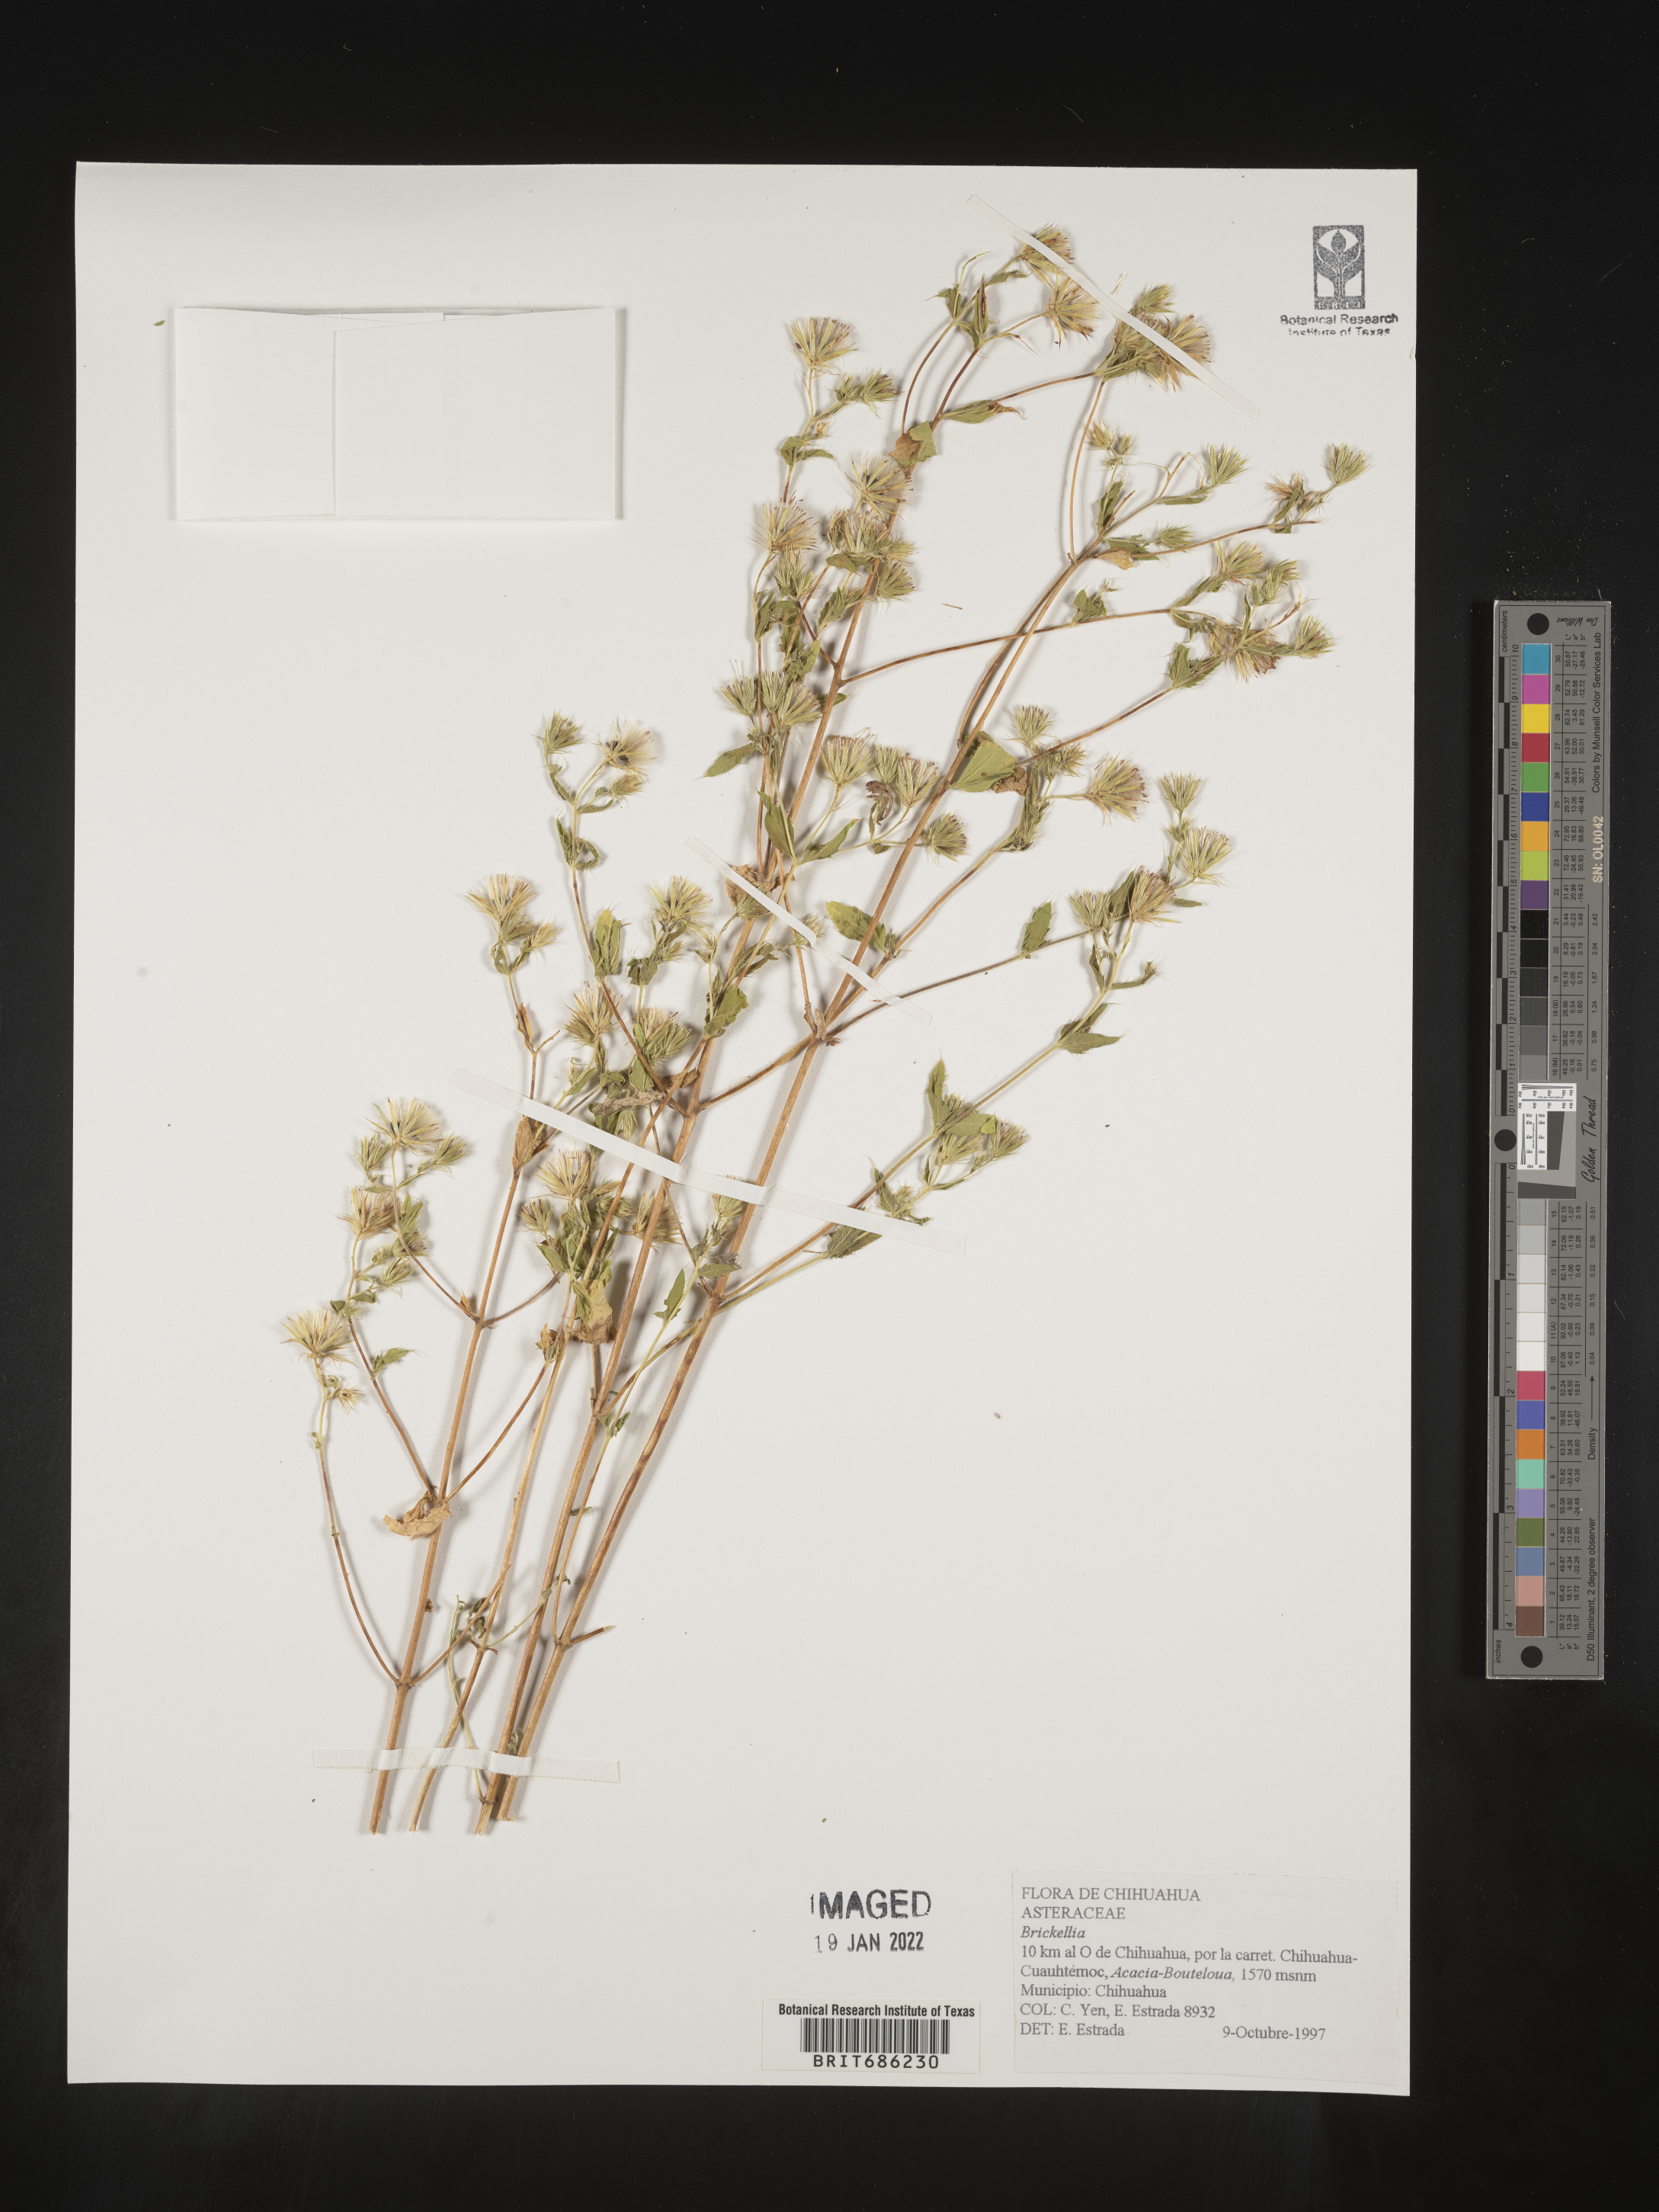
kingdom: Plantae
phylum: Tracheophyta
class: Magnoliopsida
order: Asterales
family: Asteraceae
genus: Brickellia
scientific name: Brickellia
